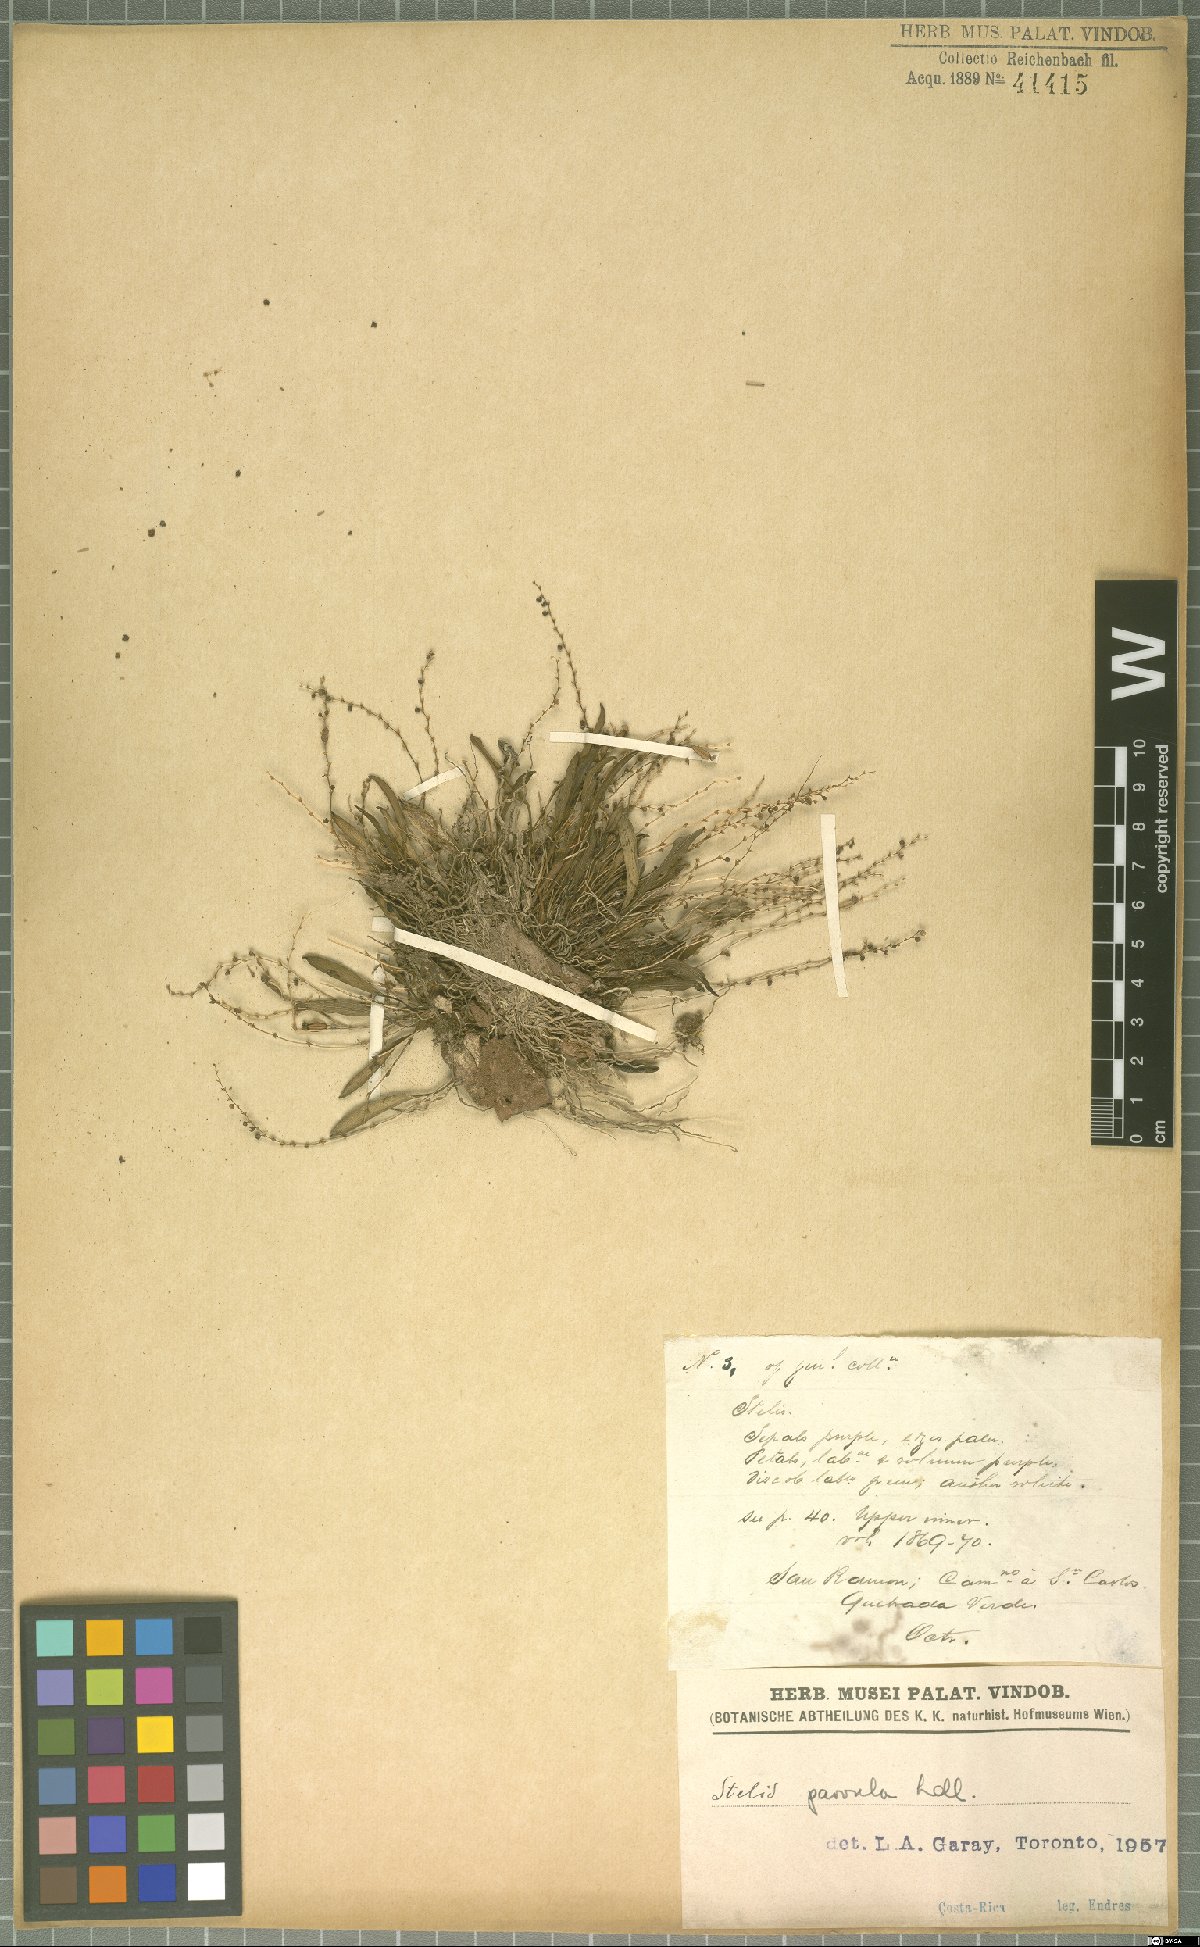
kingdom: Plantae
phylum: Tracheophyta
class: Liliopsida
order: Asparagales
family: Orchidaceae
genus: Stelis
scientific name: Stelis parvula
